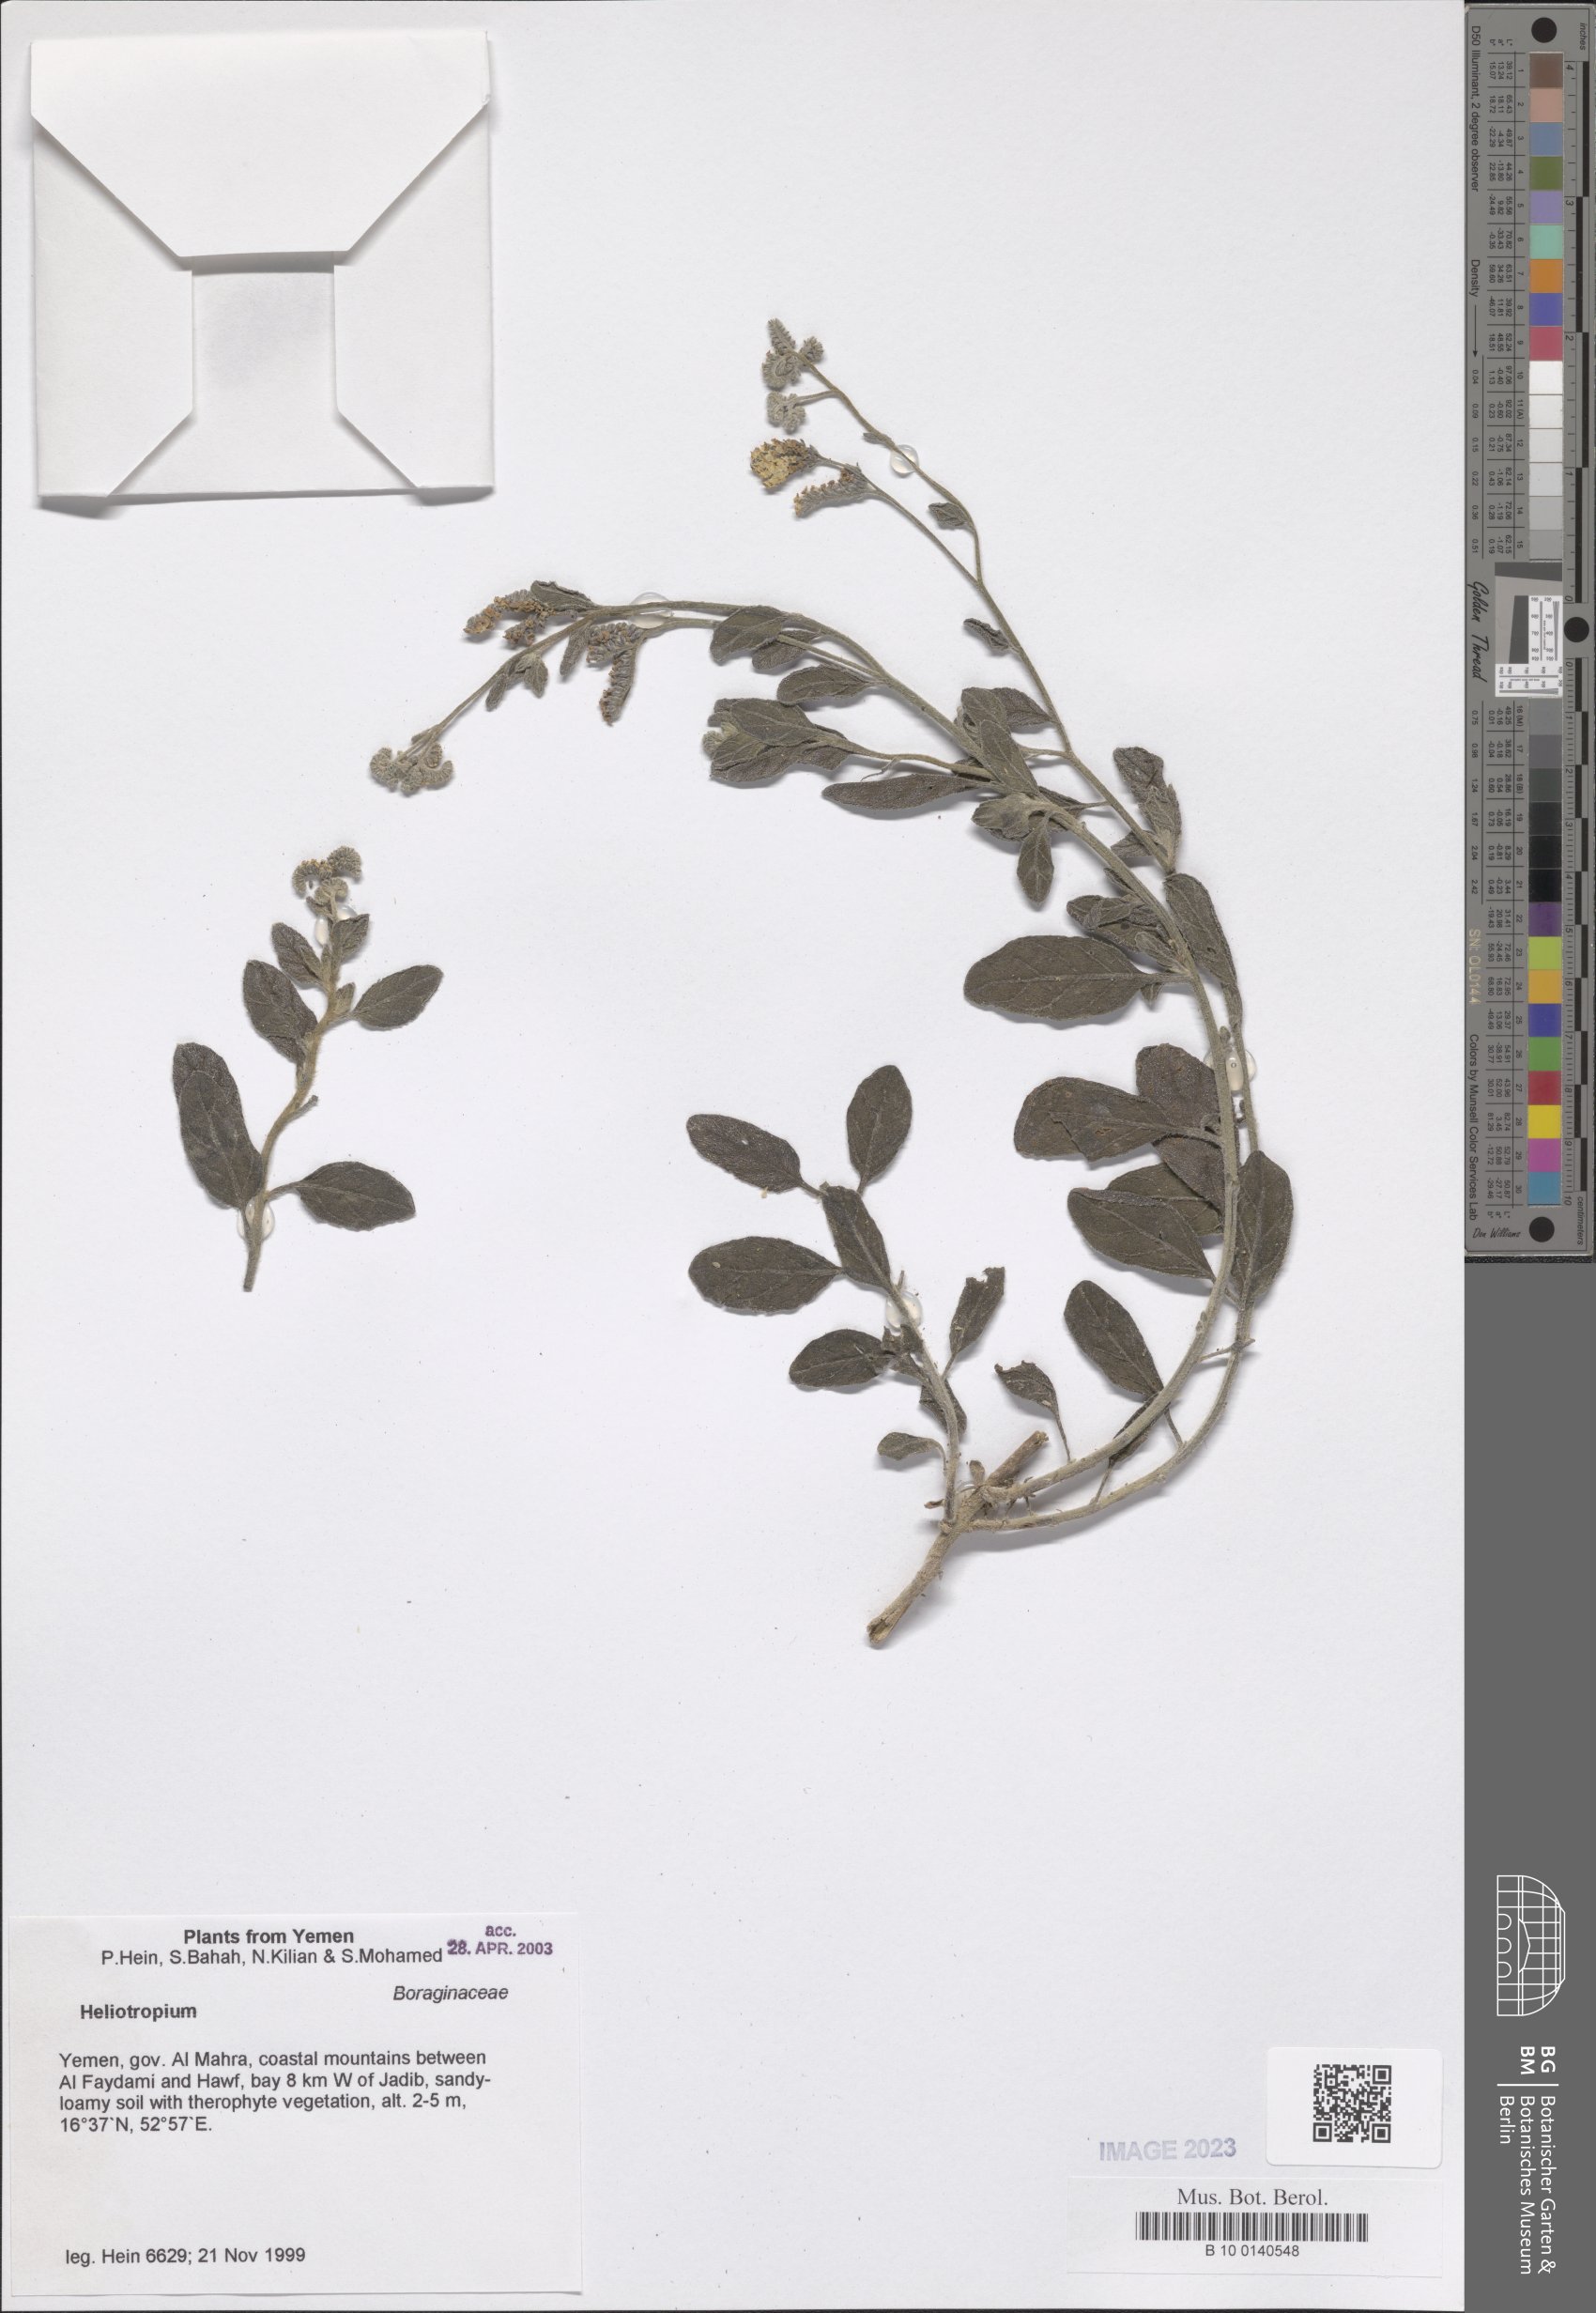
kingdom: Plantae
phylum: Tracheophyta
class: Magnoliopsida
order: Boraginales
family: Heliotropiaceae
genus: Heliotropium
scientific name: Heliotropium
